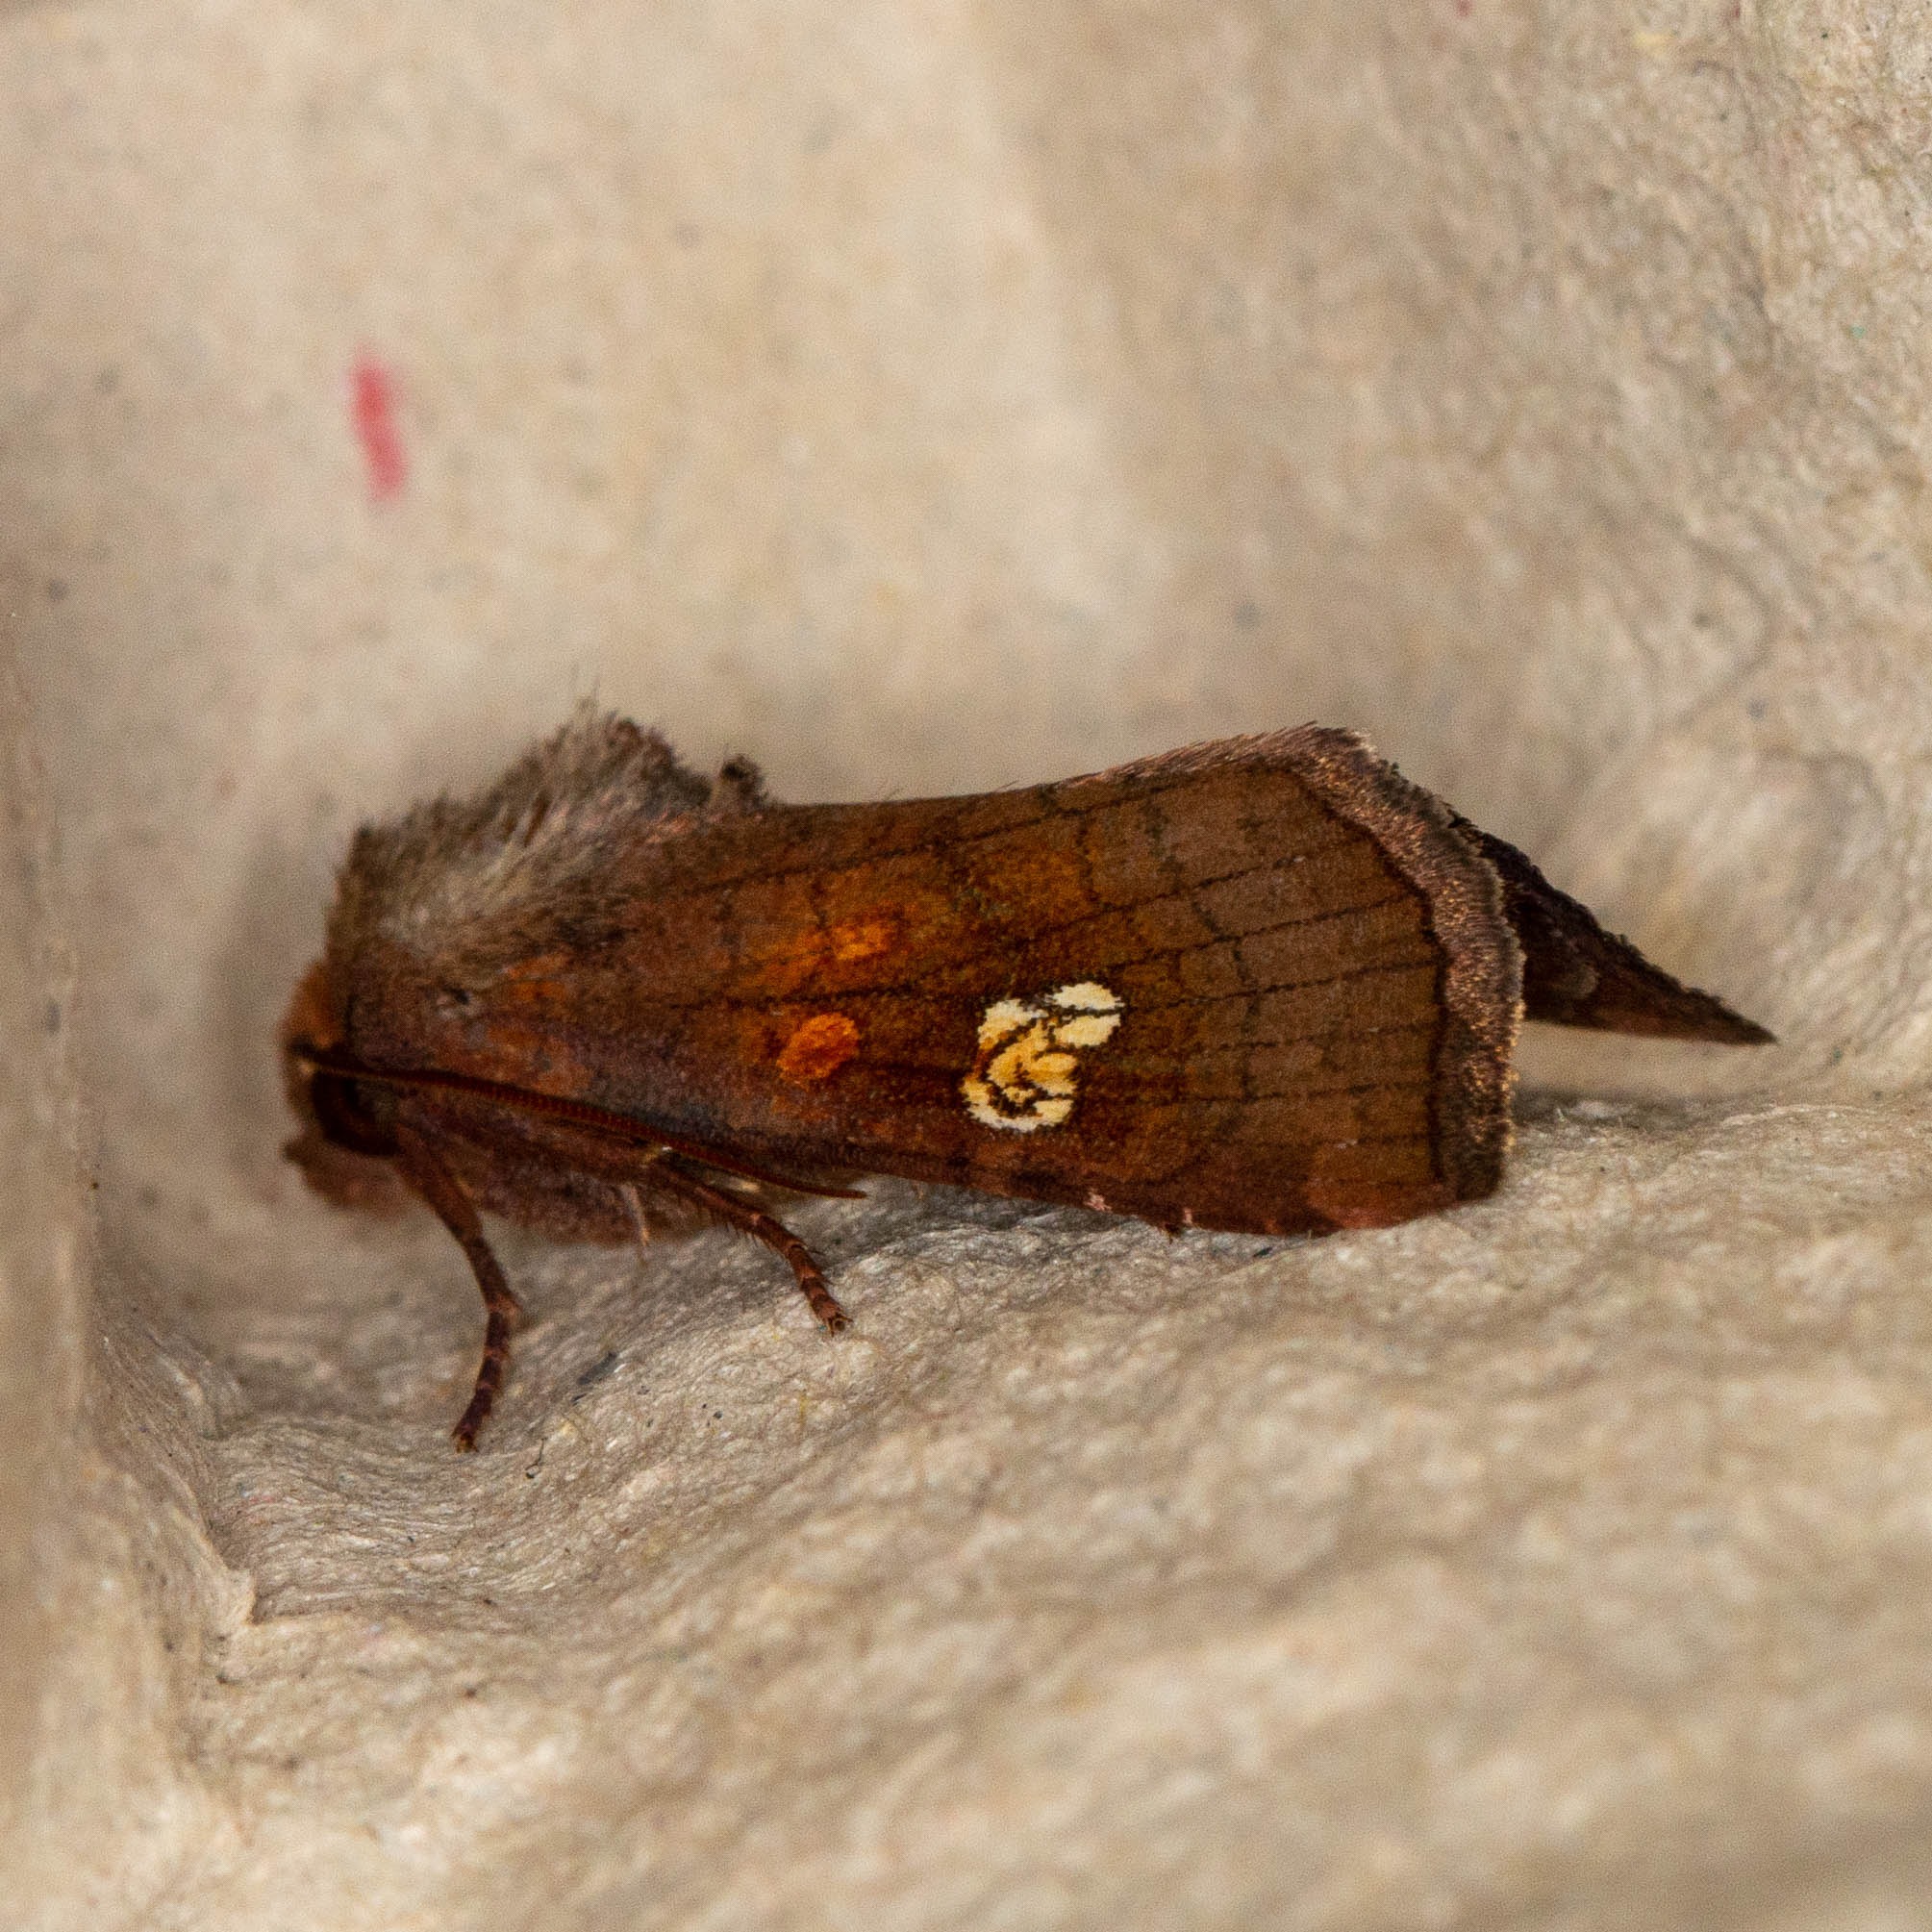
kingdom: Animalia
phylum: Arthropoda
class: Insecta
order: Lepidoptera
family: Noctuidae
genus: Amphipoea
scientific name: Amphipoea oculea
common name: Øje-græsugle
